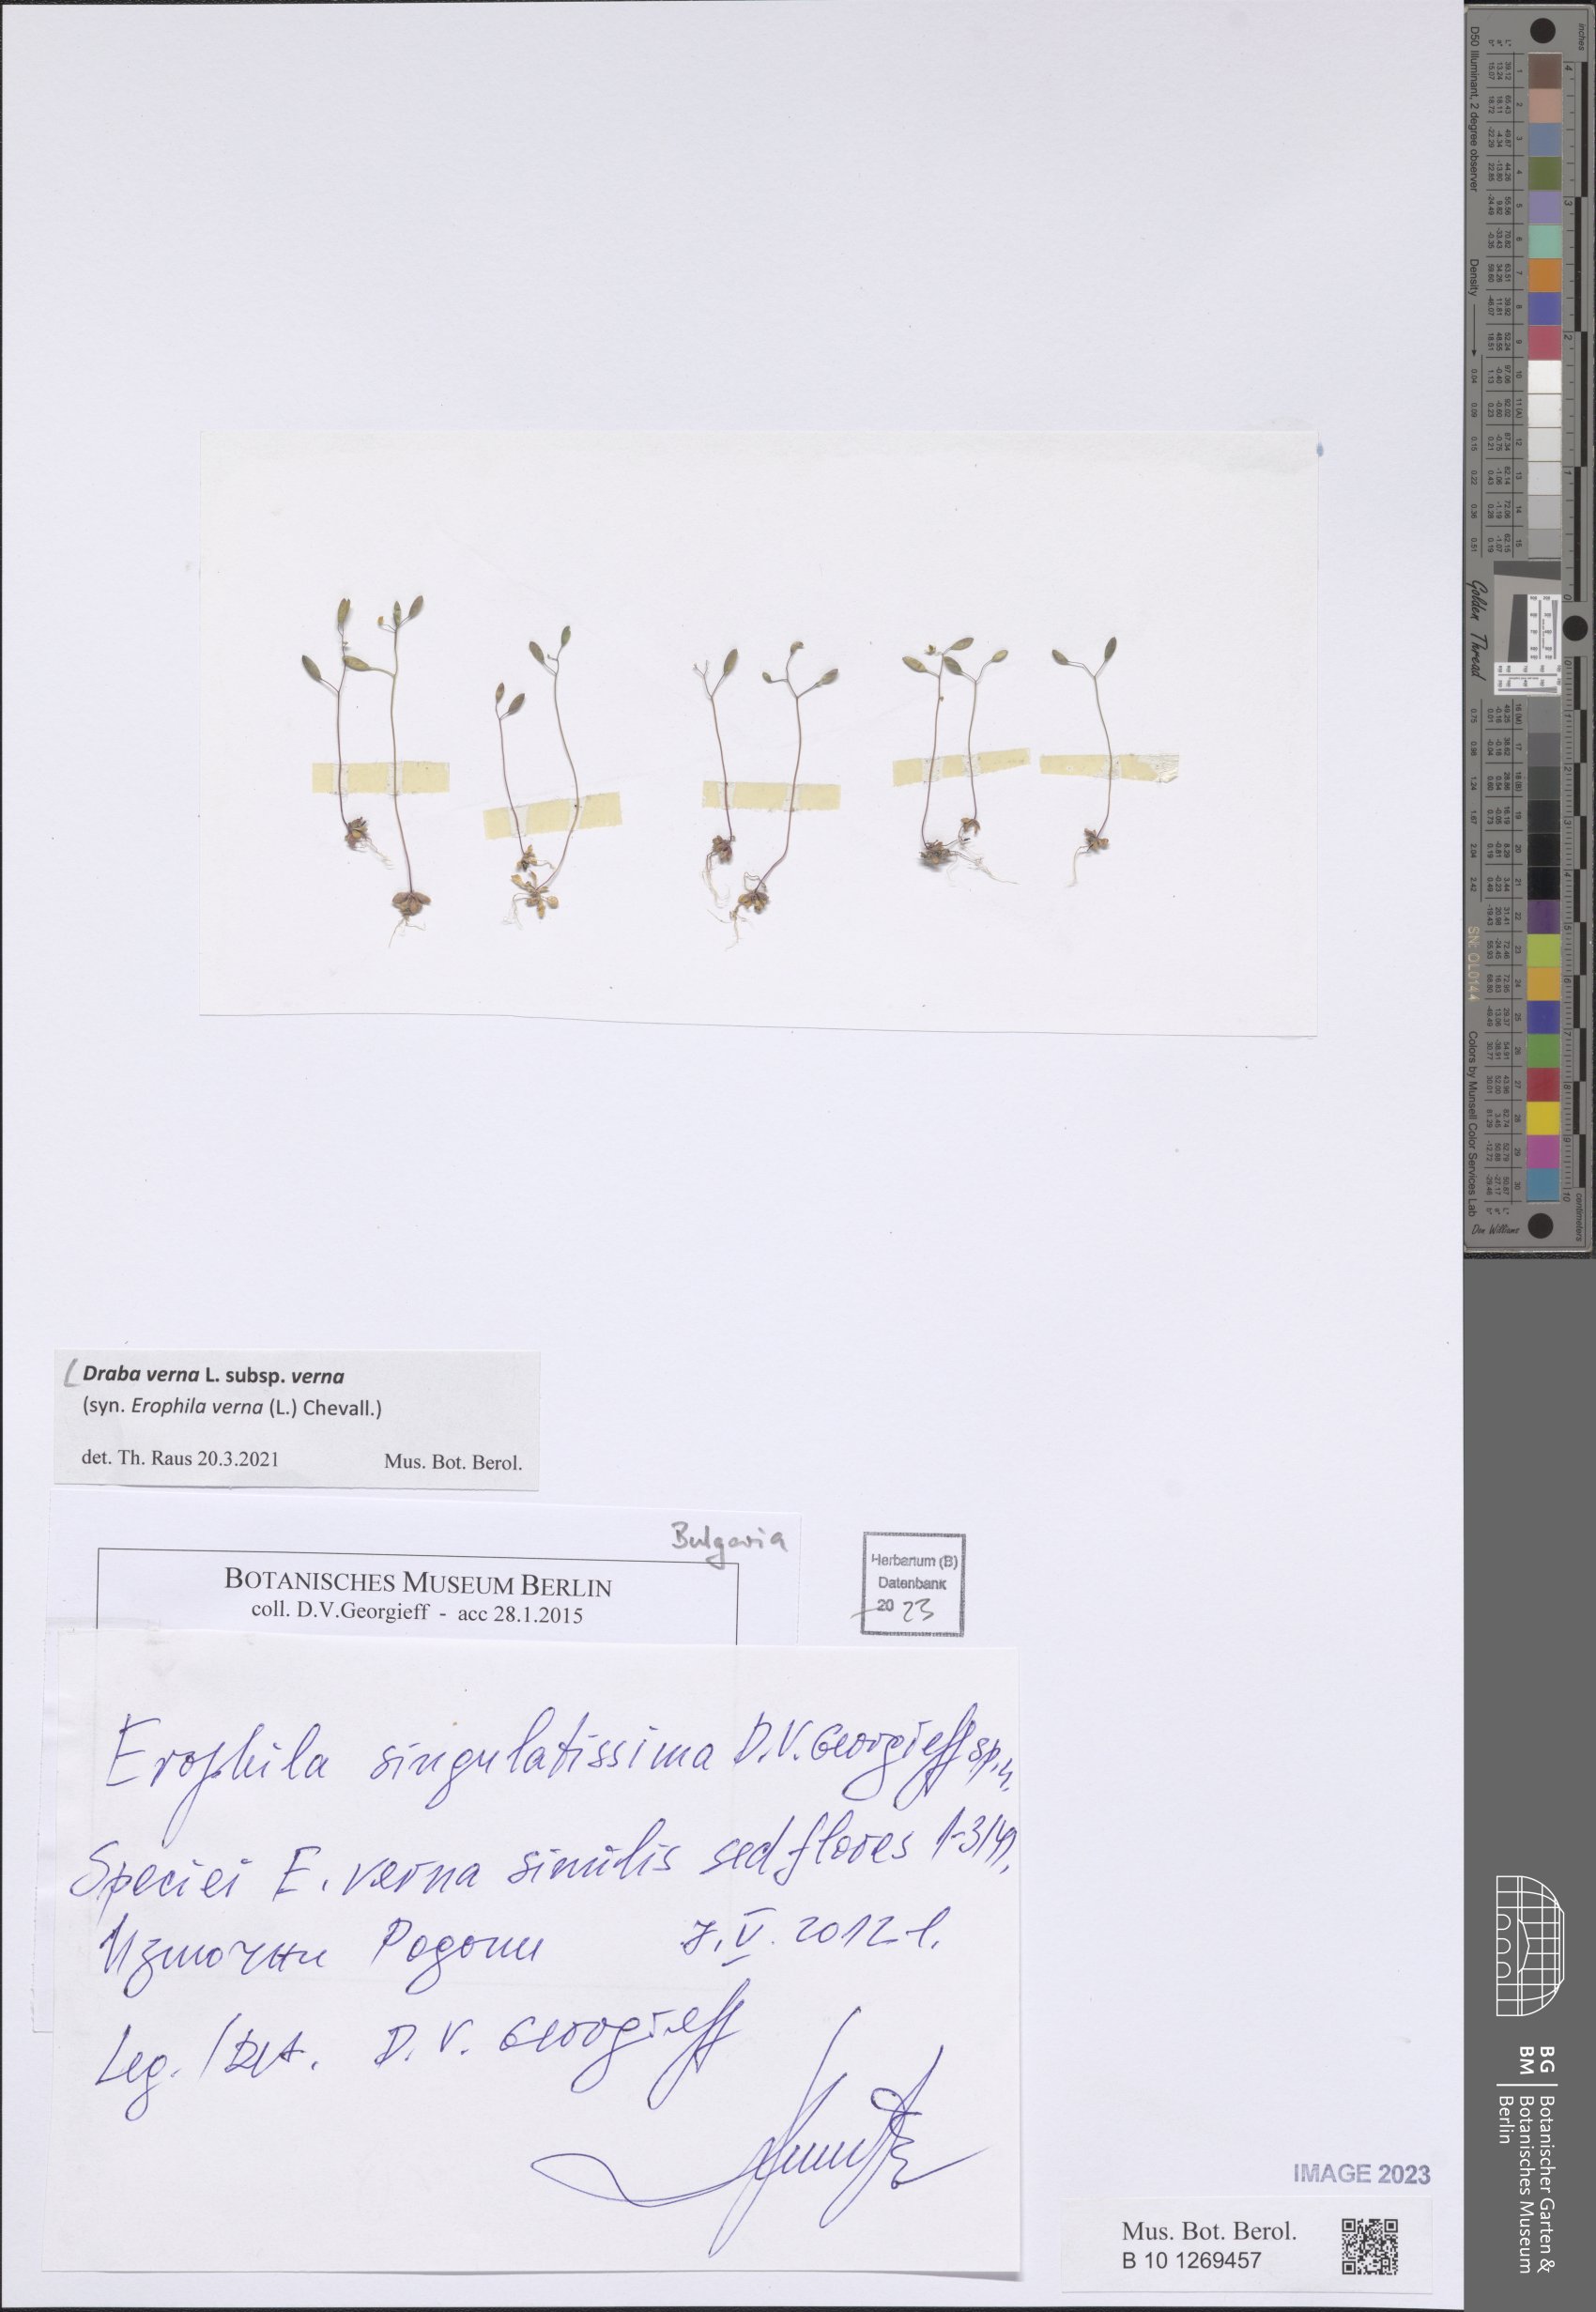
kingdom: Plantae
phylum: Tracheophyta
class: Magnoliopsida
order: Brassicales
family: Brassicaceae
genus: Draba
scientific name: Draba verna
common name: Spring draba
